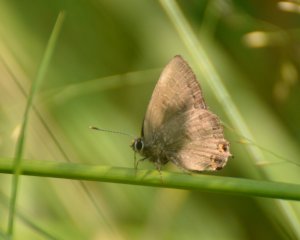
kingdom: Animalia
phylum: Arthropoda
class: Insecta
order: Lepidoptera
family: Lycaenidae
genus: Satyrium
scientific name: Satyrium liparops
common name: Striped Hairstreak
